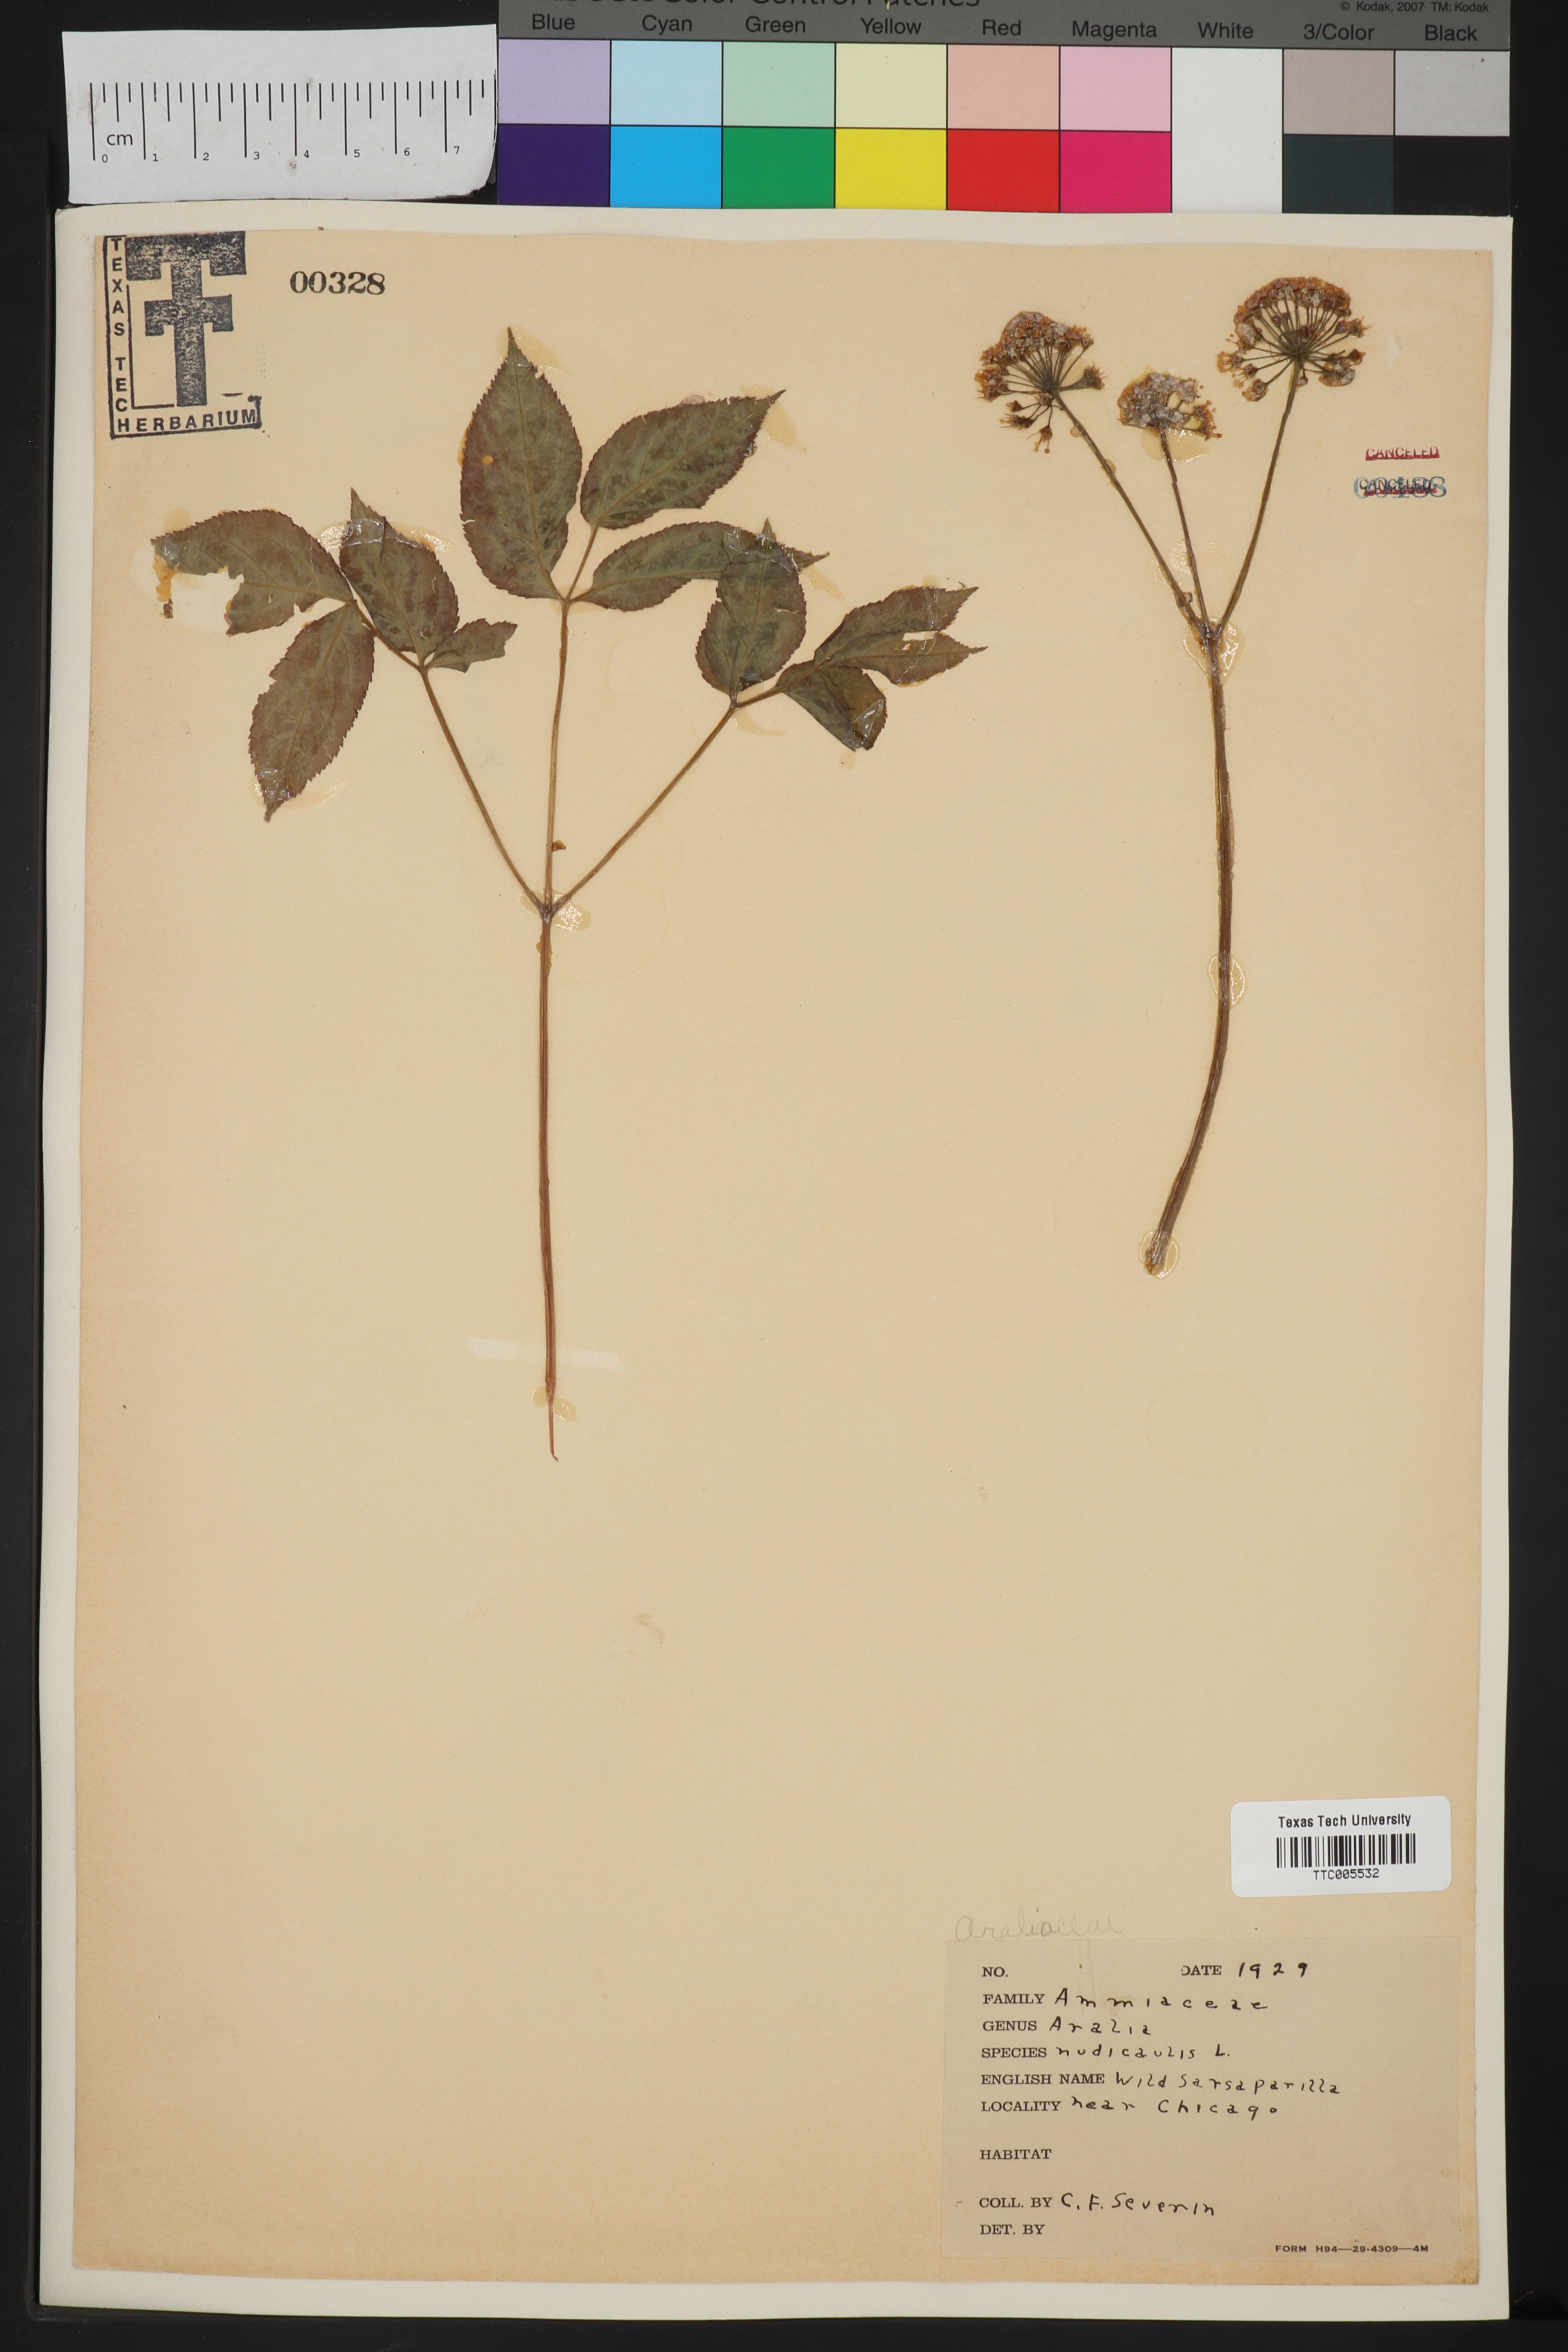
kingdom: Plantae
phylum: Tracheophyta
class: Magnoliopsida
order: Apiales
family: Araliaceae
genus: Aralia
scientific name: Aralia nudicaulis
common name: Wild sarsaparilla
